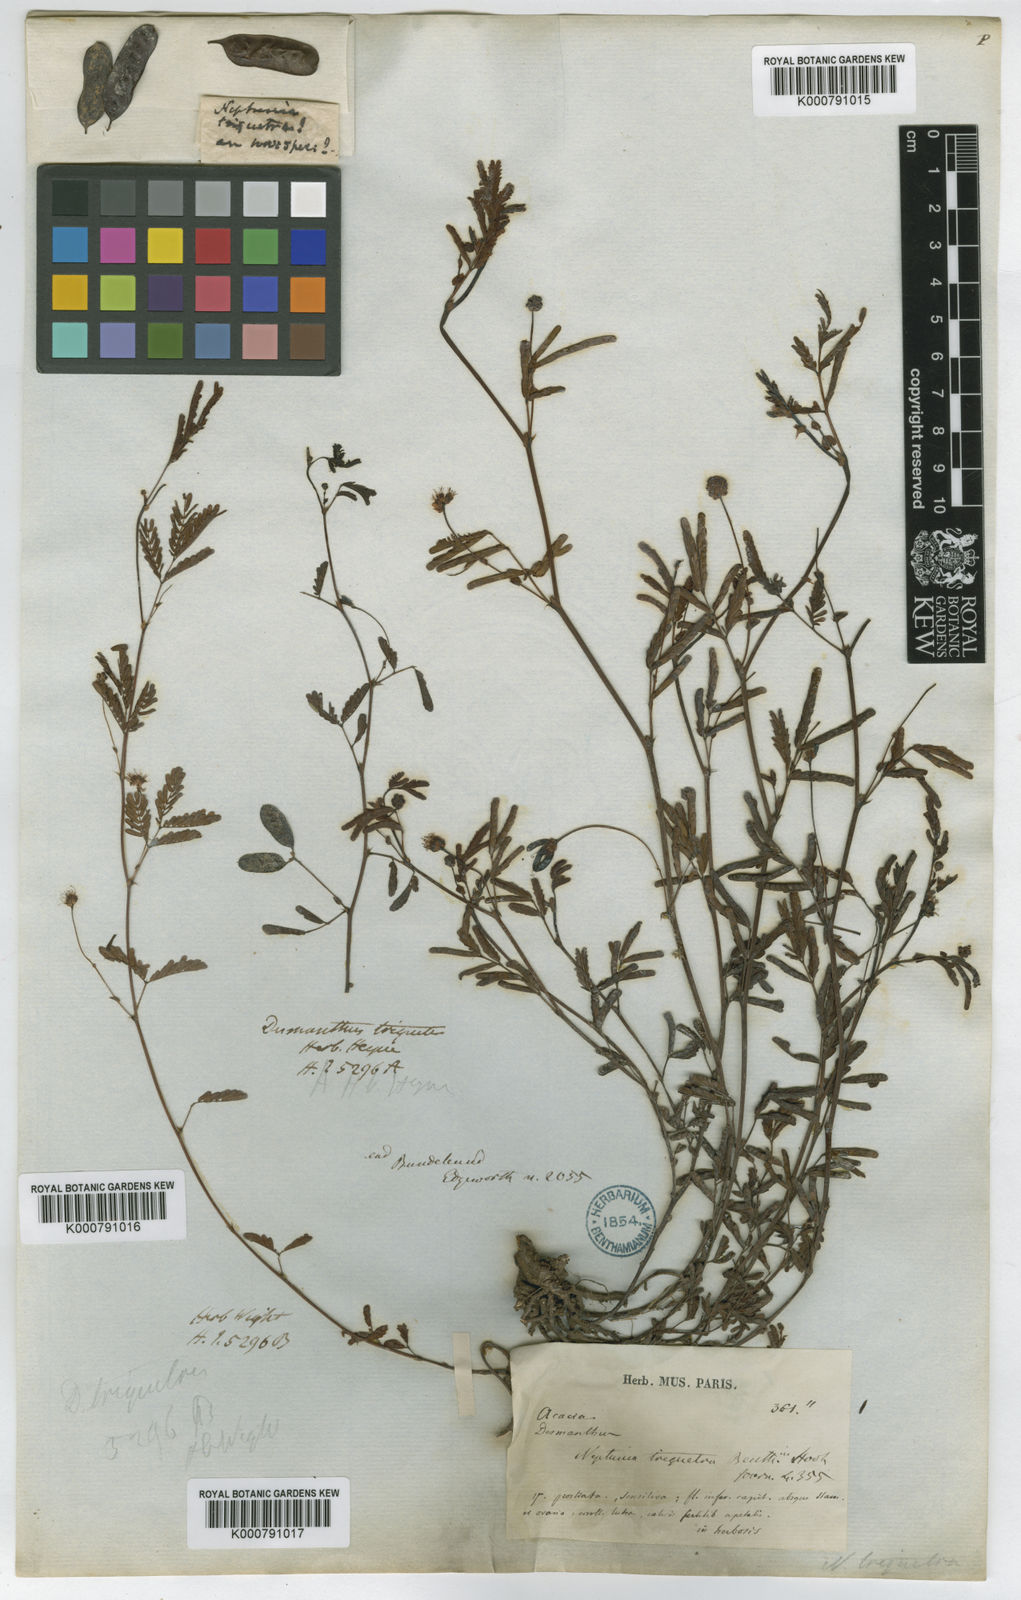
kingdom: Plantae
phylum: Tracheophyta
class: Magnoliopsida
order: Fabales
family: Fabaceae
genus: Neptunia
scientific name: Neptunia triquetra
